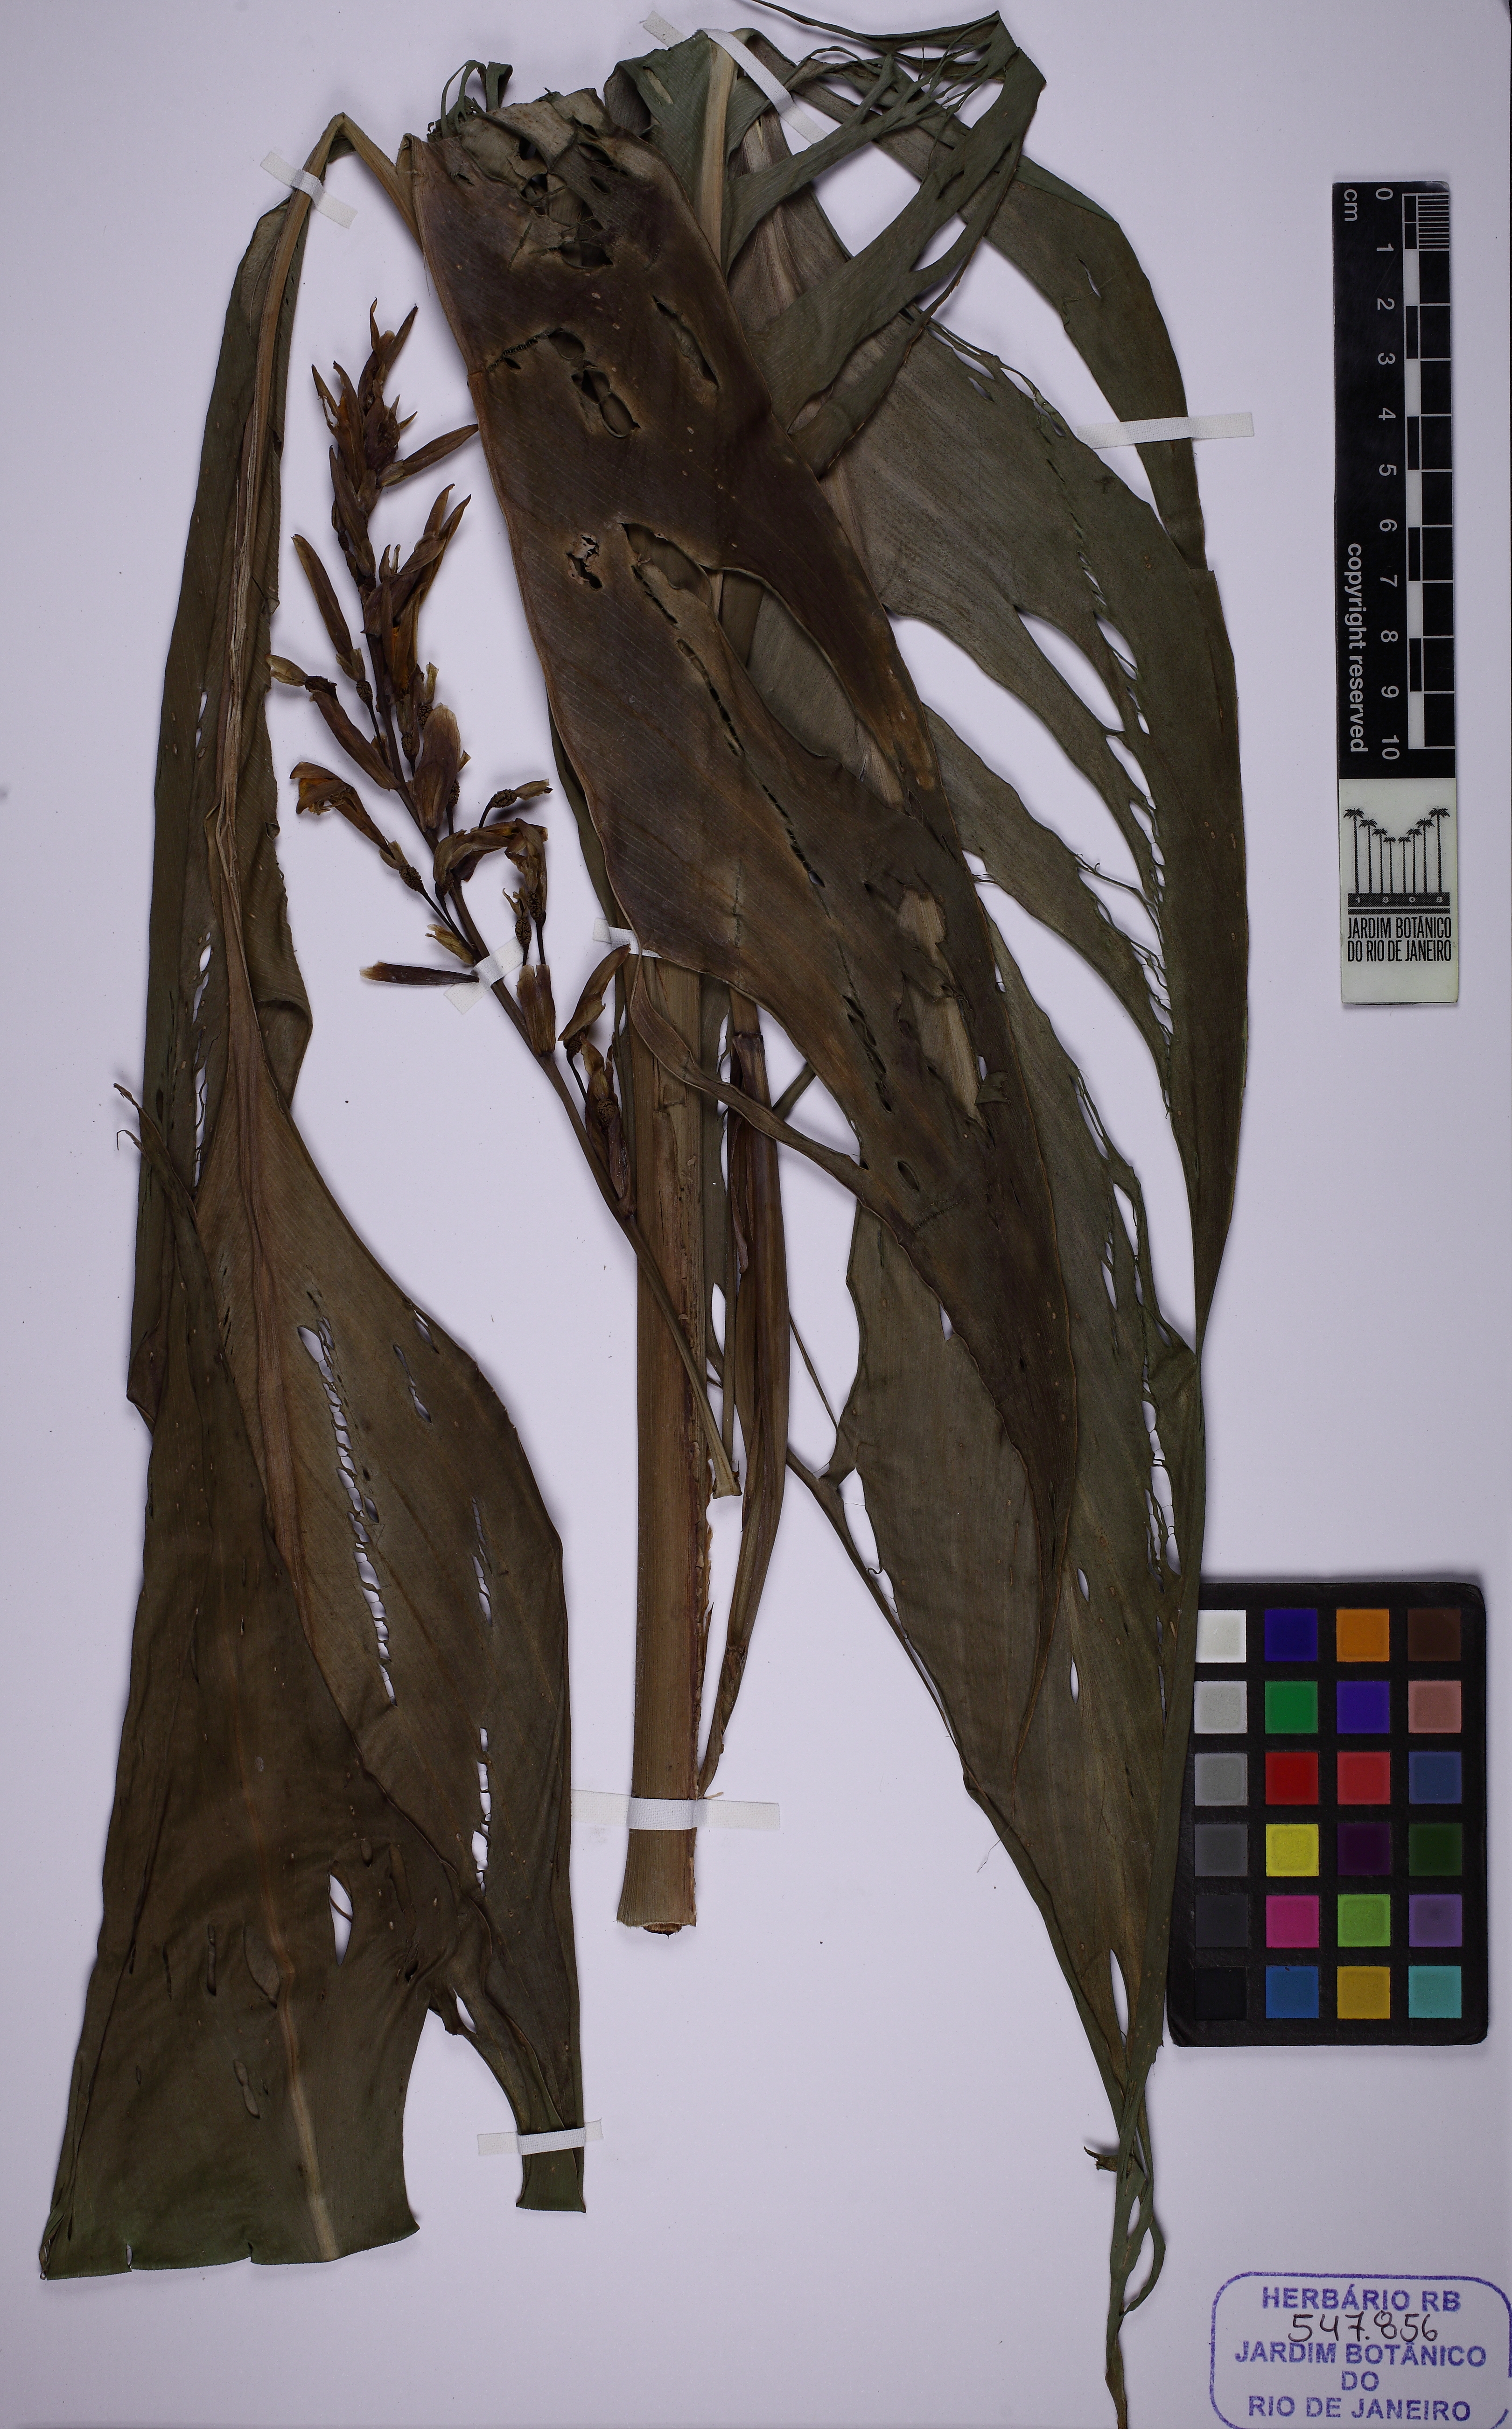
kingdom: Plantae
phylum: Tracheophyta
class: Liliopsida
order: Zingiberales
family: Cannaceae
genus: Canna
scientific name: Canna paniculata
